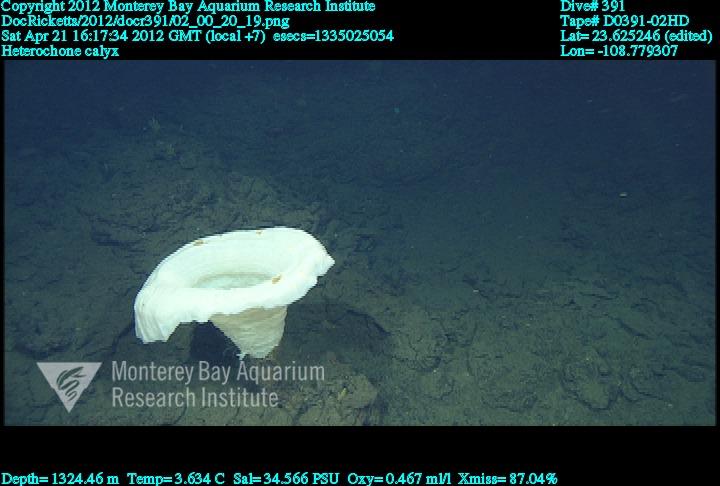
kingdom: Animalia
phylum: Porifera
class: Hexactinellida
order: Sceptrulophora
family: Aphrocallistidae
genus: Heterochone
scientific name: Heterochone calyx
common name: Fingered goblet glass sponge
